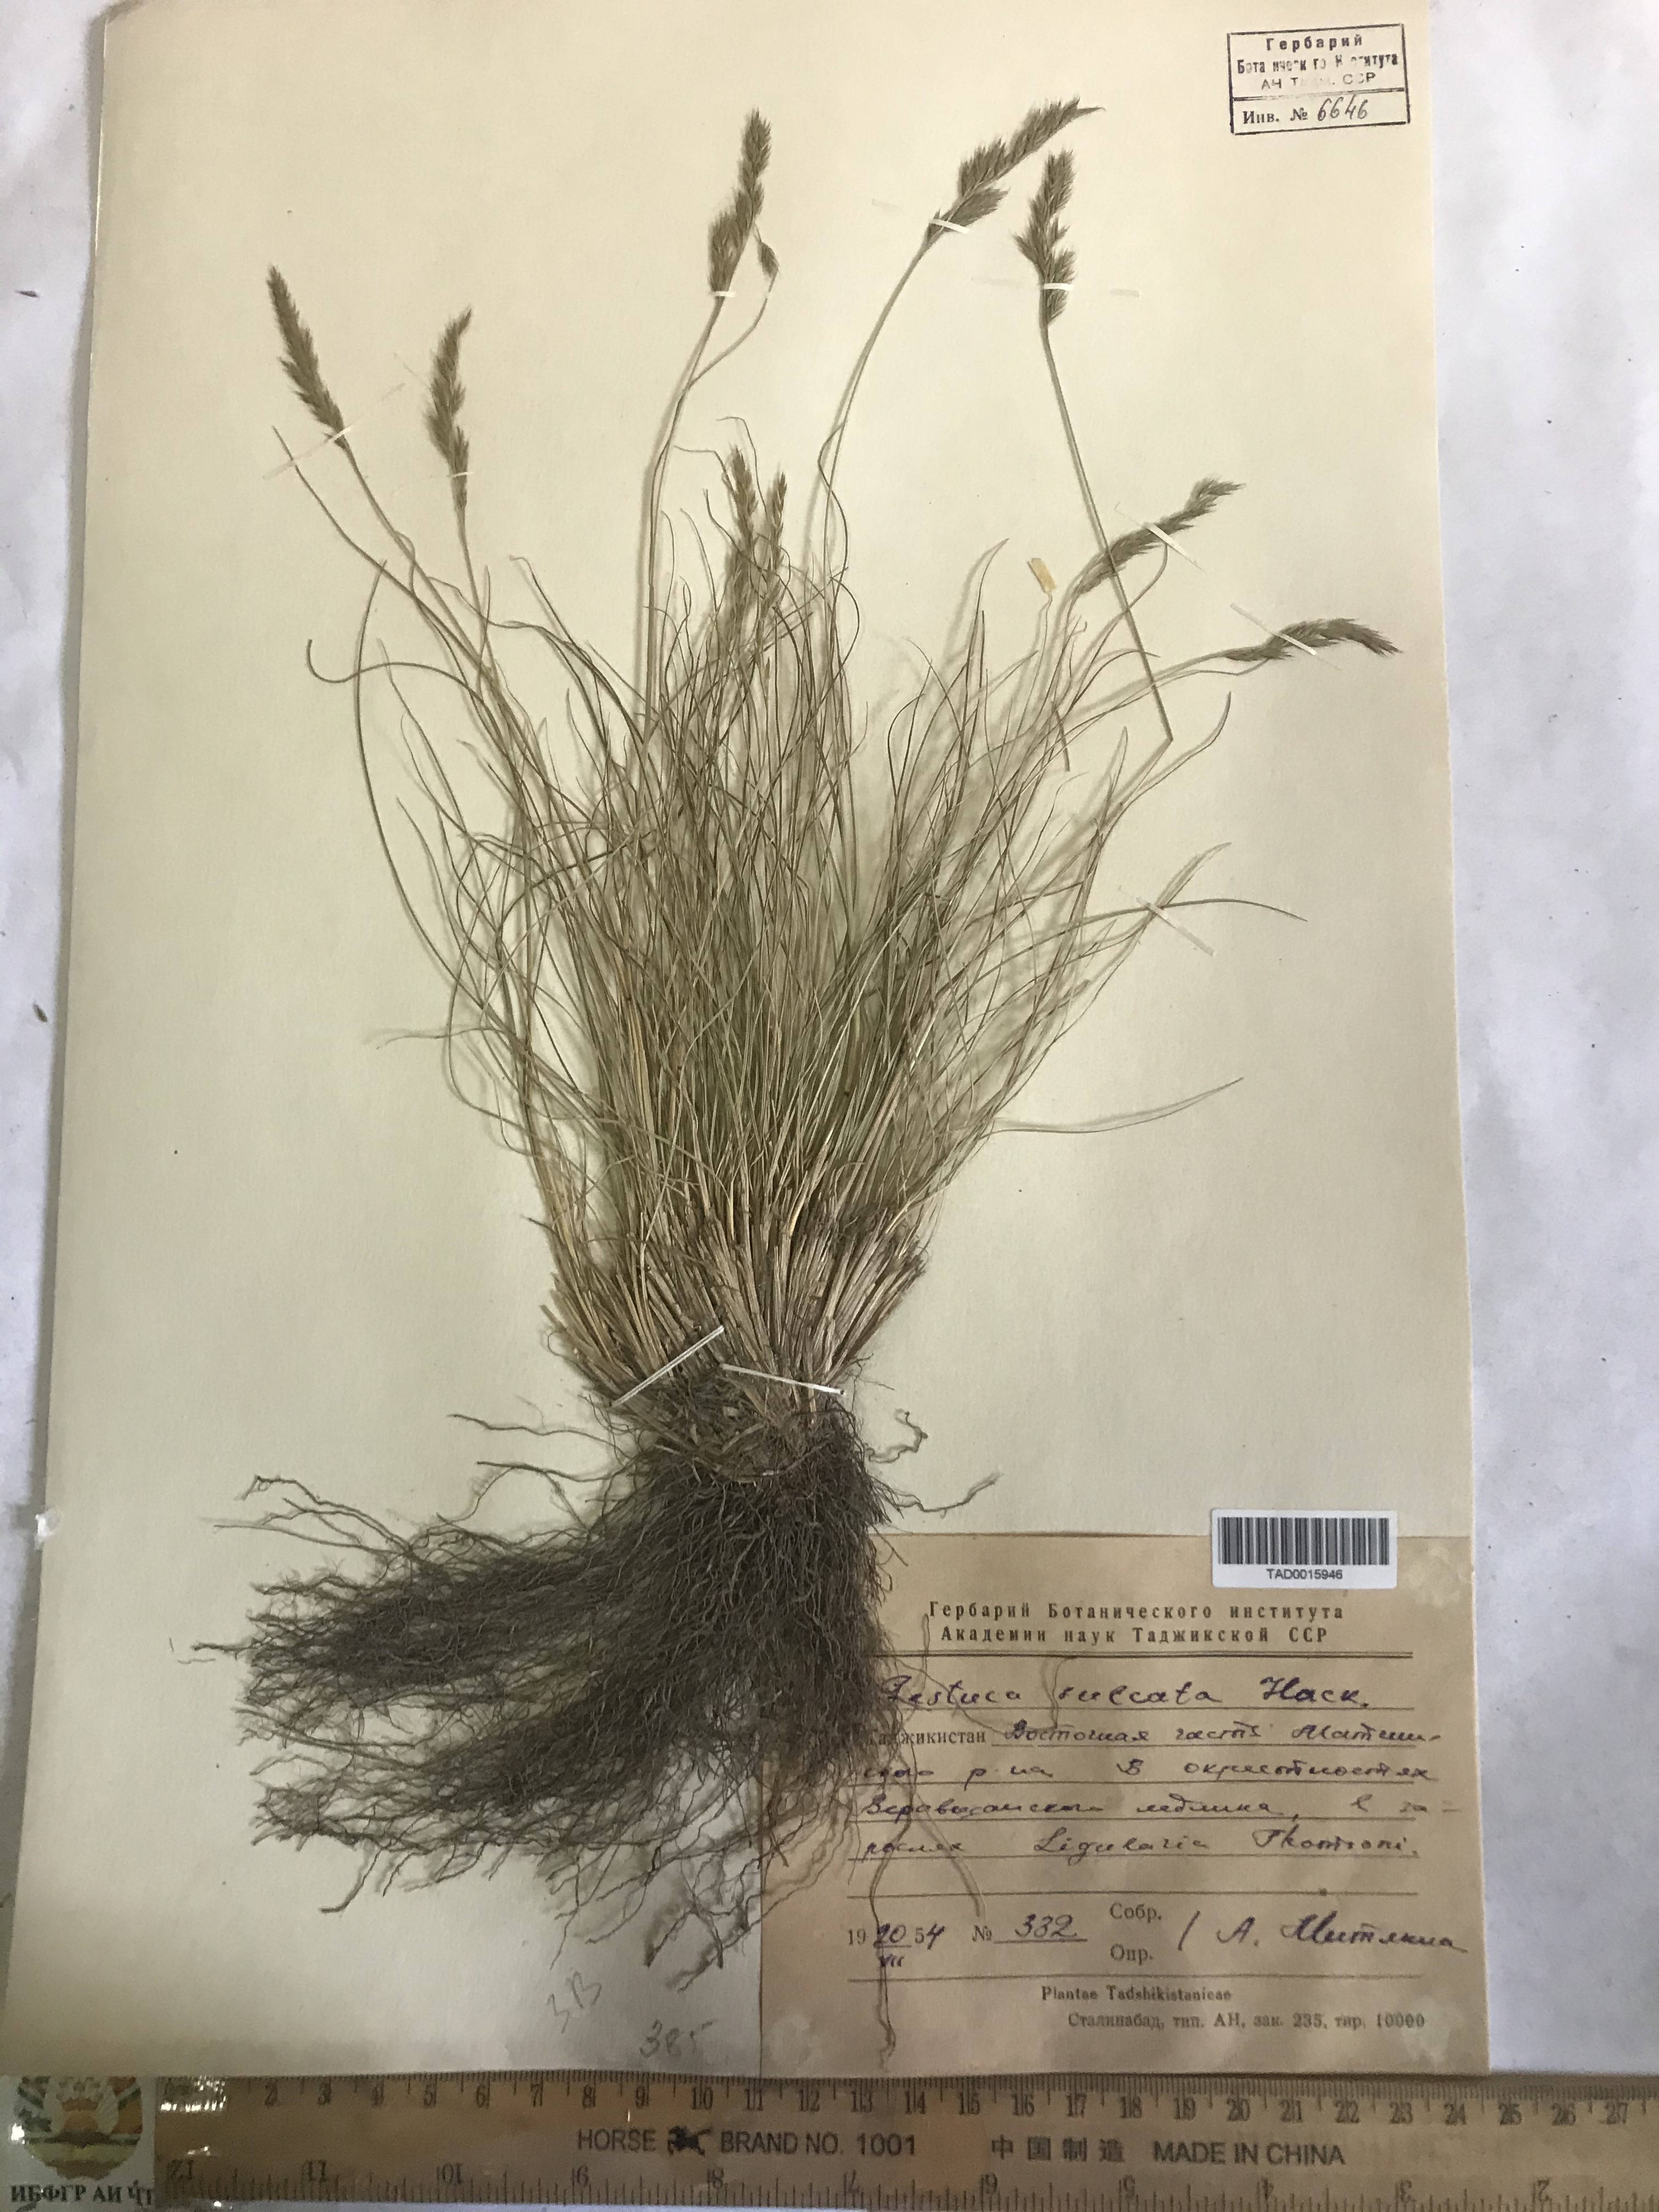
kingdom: Plantae
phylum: Tracheophyta
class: Liliopsida
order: Poales
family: Poaceae
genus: Festuca
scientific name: Festuca sulcata
